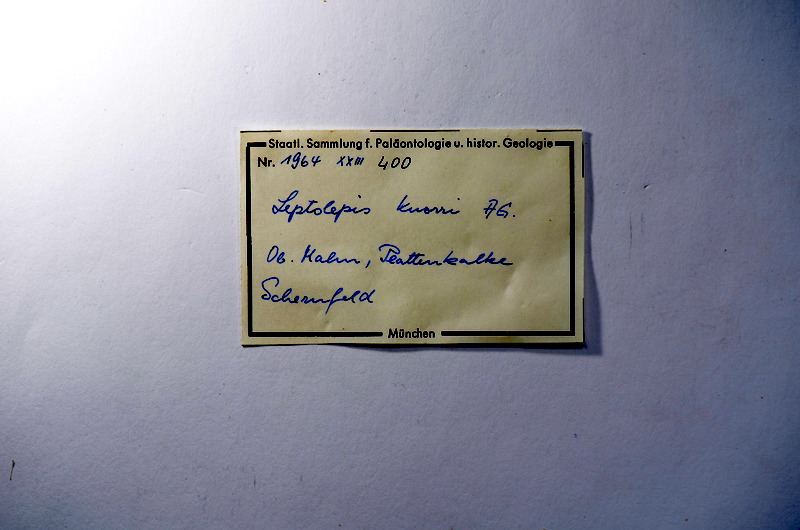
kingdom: Animalia
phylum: Chordata
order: Elopiformes
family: Anaethalionidae
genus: Anaethalion
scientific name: Anaethalion knorri
